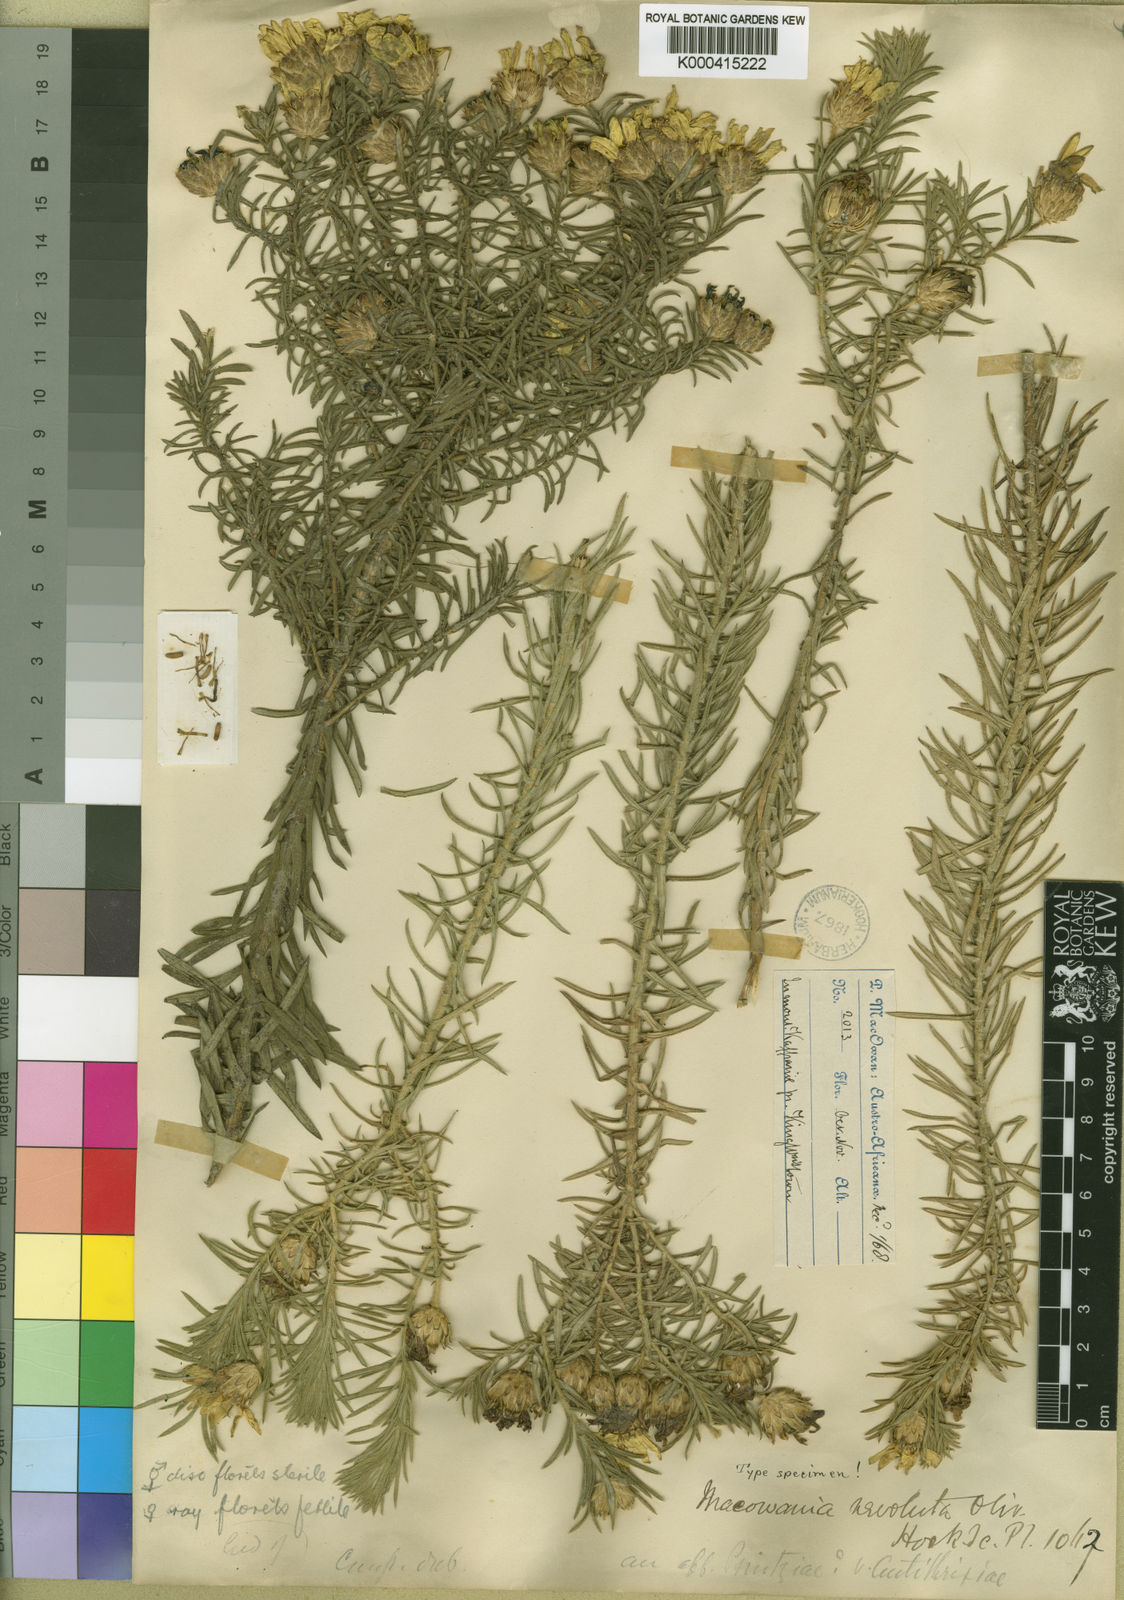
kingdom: Plantae
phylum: Tracheophyta
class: Magnoliopsida
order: Asterales
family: Asteraceae
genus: Arrowsmithia
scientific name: Arrowsmithia revoluta
